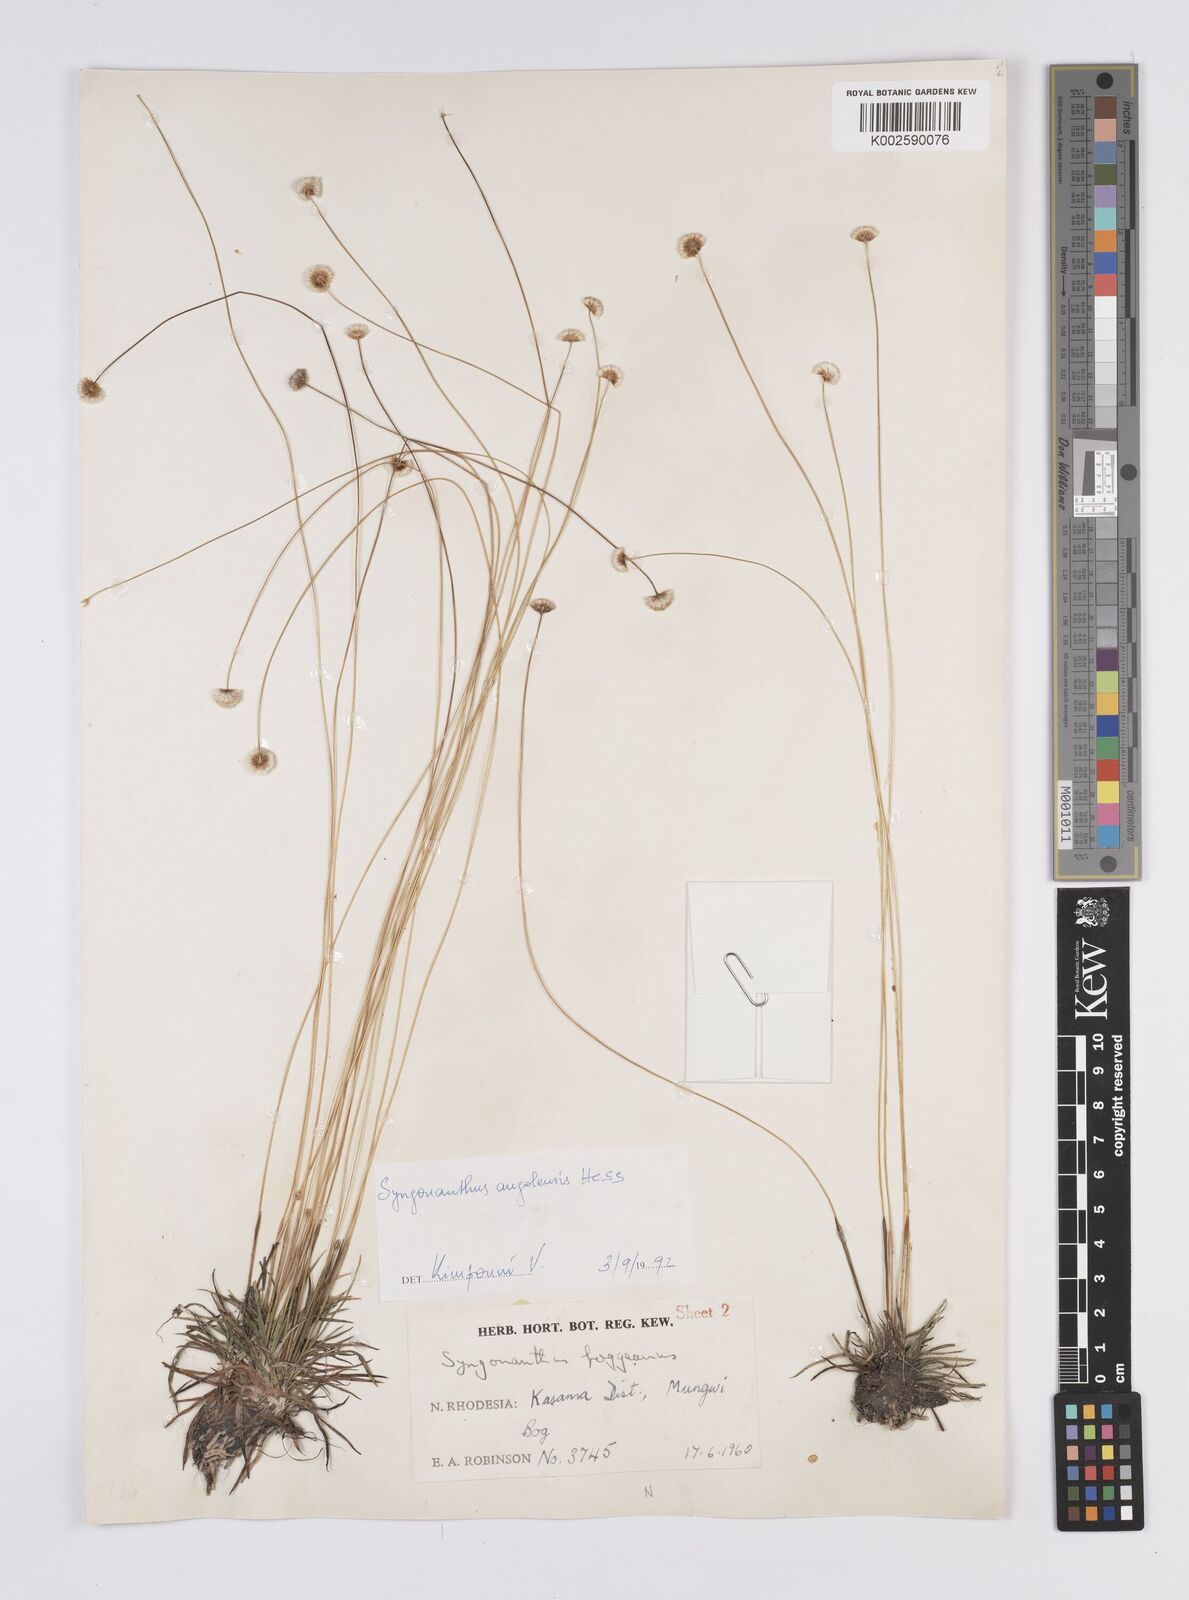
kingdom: Plantae
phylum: Tracheophyta
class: Liliopsida
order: Poales
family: Eriocaulaceae
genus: Syngonanthus
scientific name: Syngonanthus angolensis
